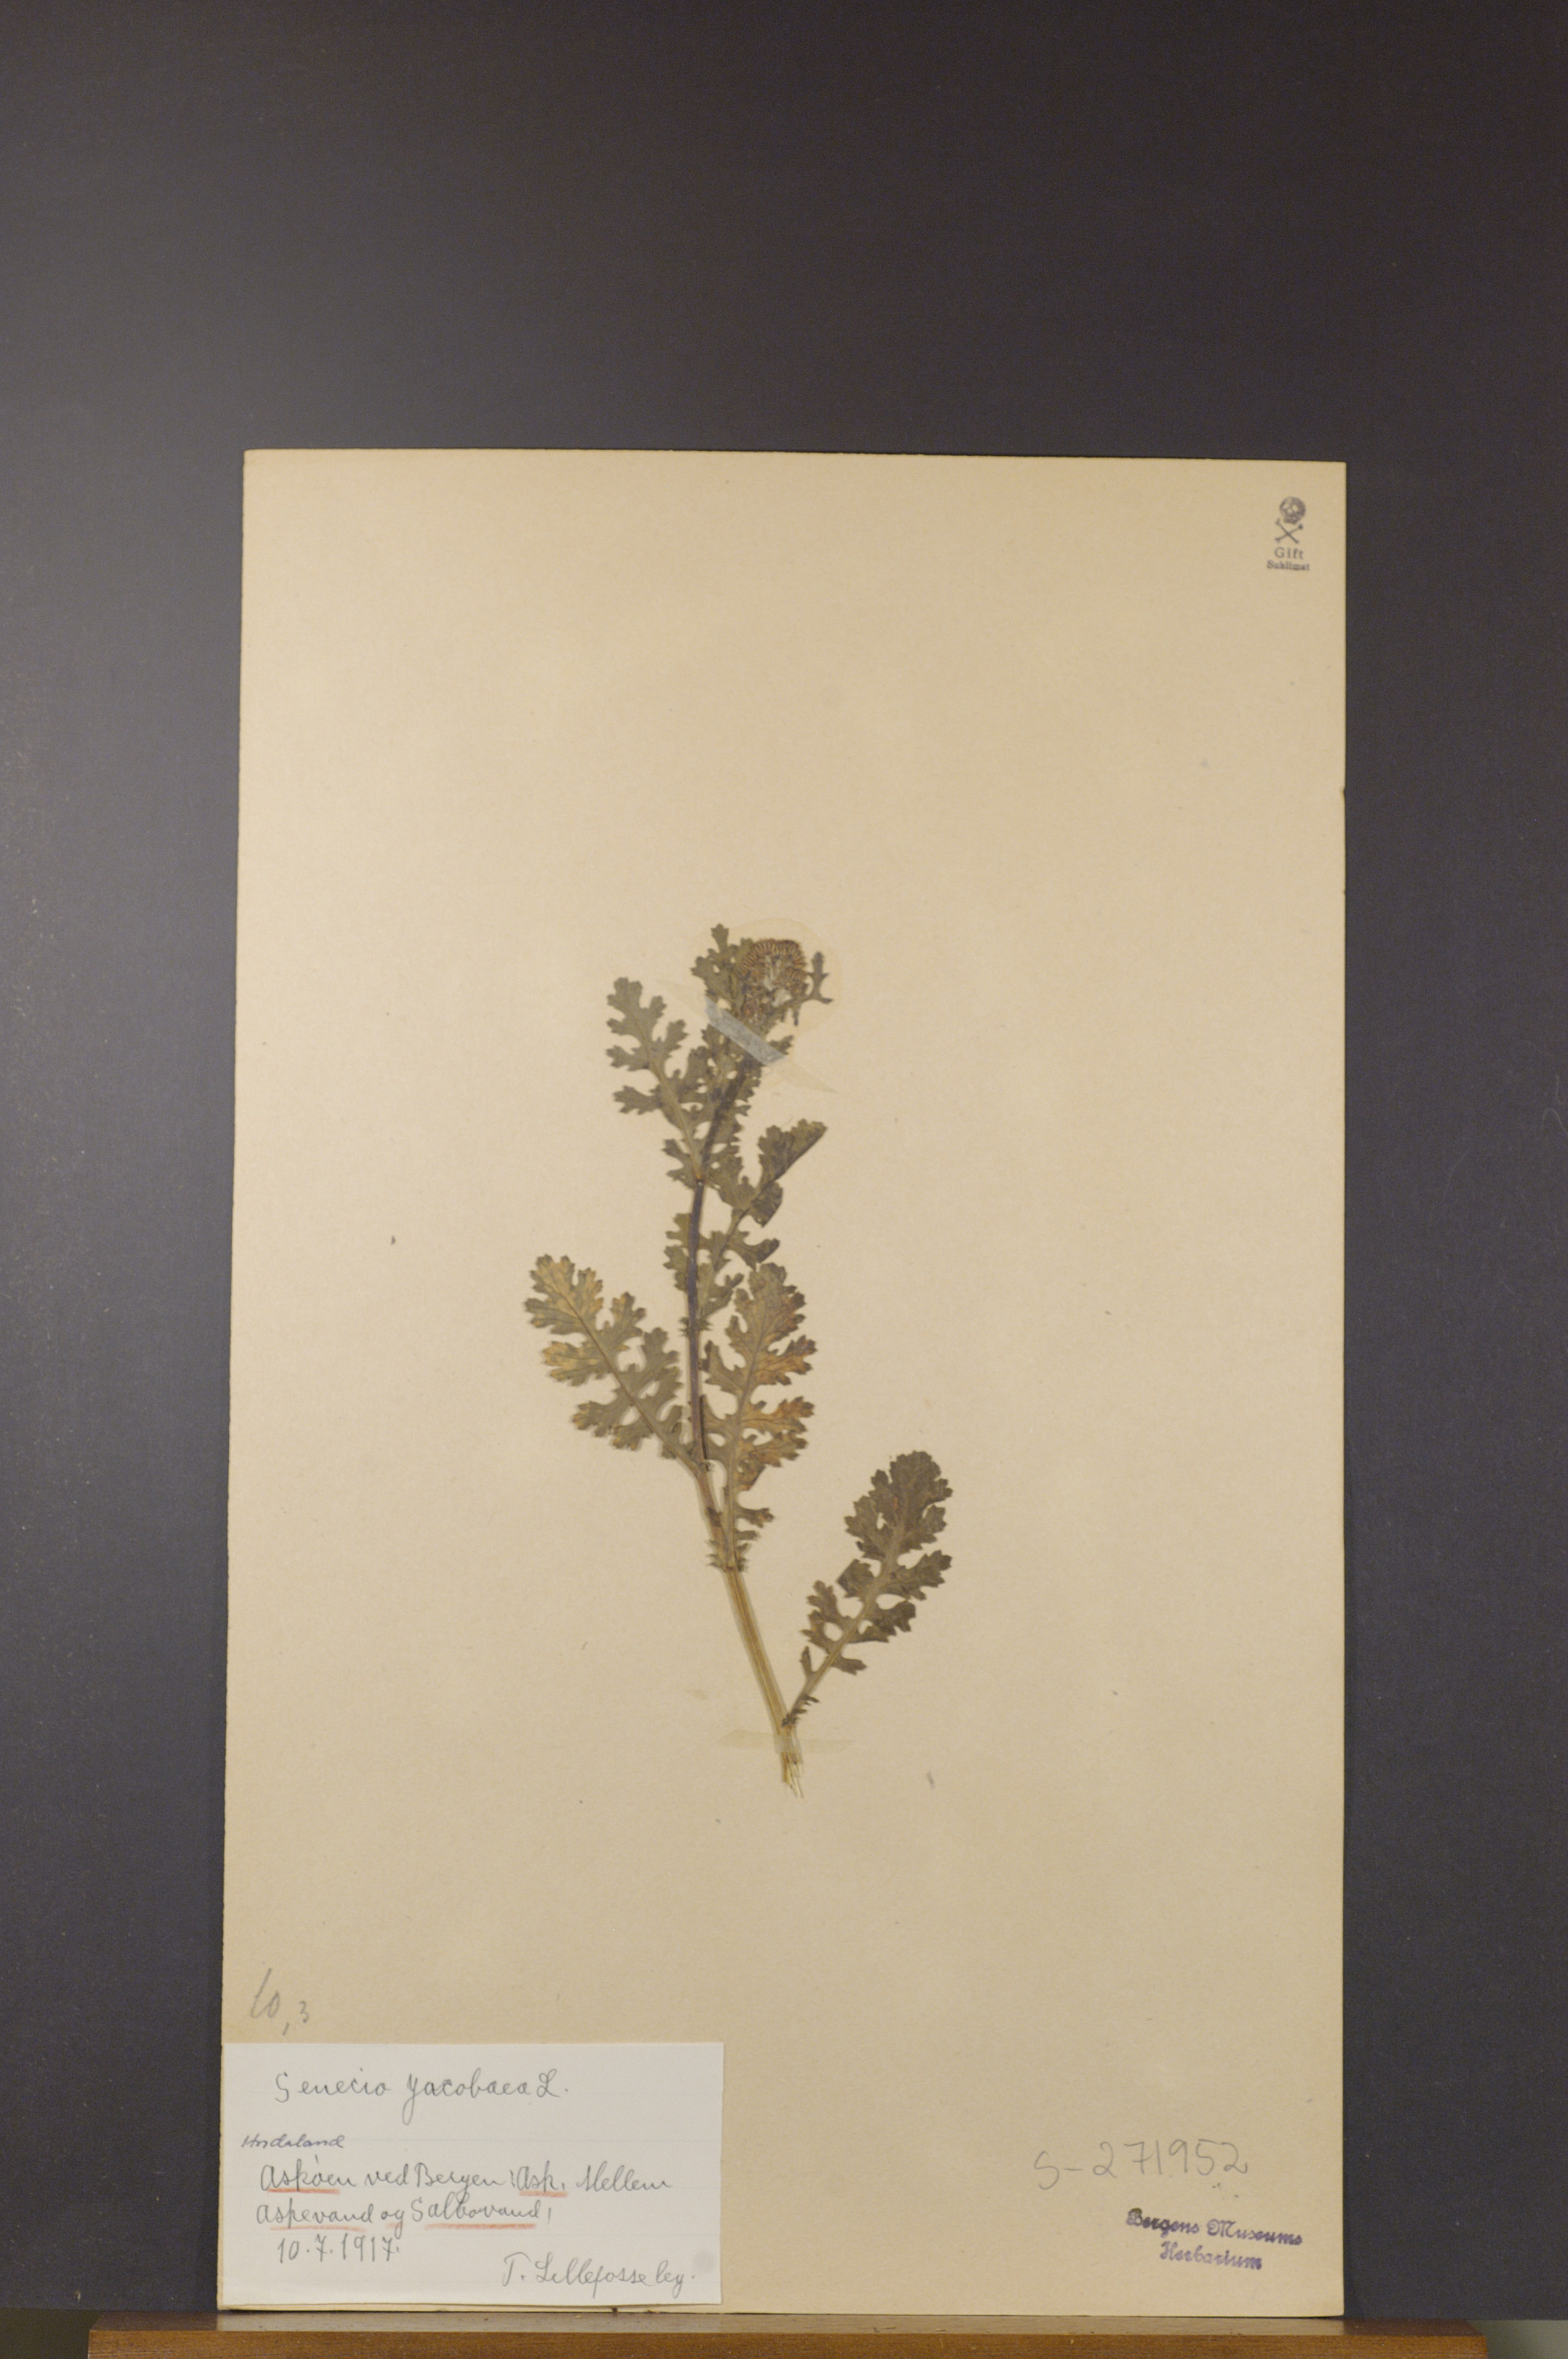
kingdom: Plantae
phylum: Tracheophyta
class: Magnoliopsida
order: Asterales
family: Asteraceae
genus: Jacobaea
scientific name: Jacobaea vulgaris
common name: Stinking willie
